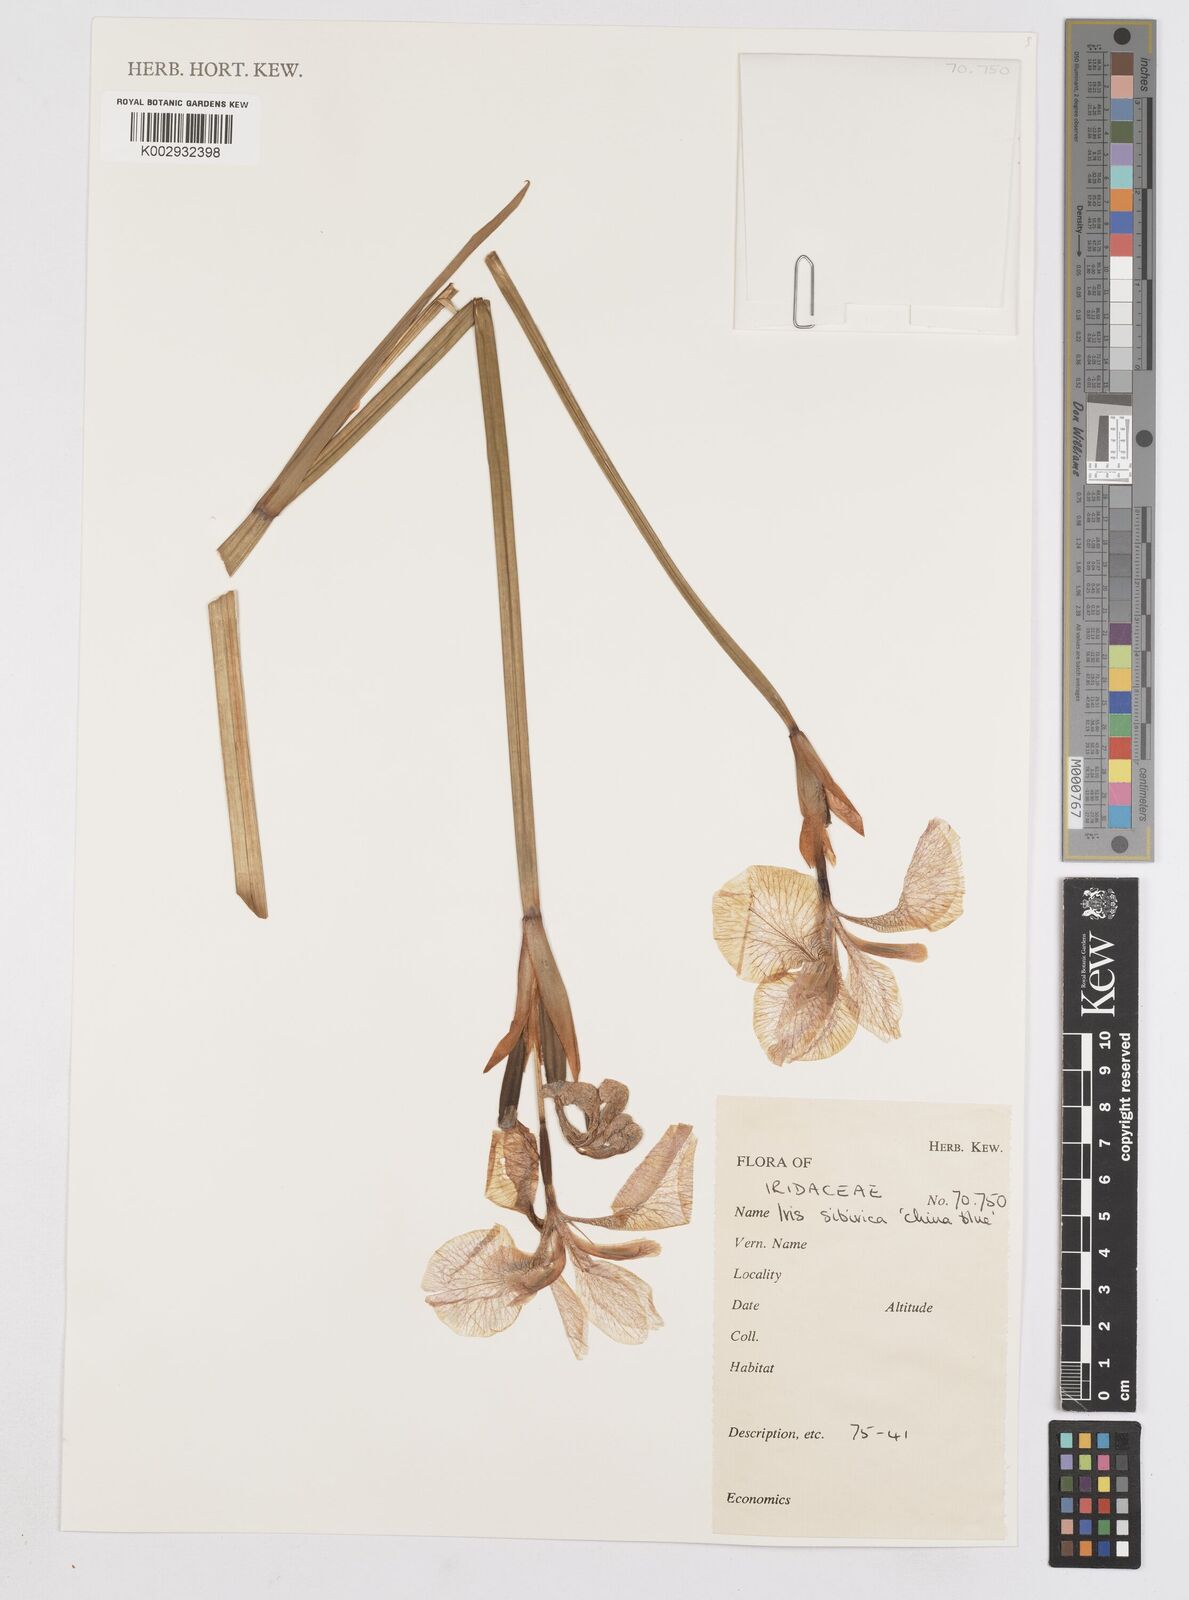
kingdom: Plantae
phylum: Tracheophyta
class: Liliopsida
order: Asparagales
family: Iridaceae
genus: Iris
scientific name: Iris sibirica
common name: Siberian iris
